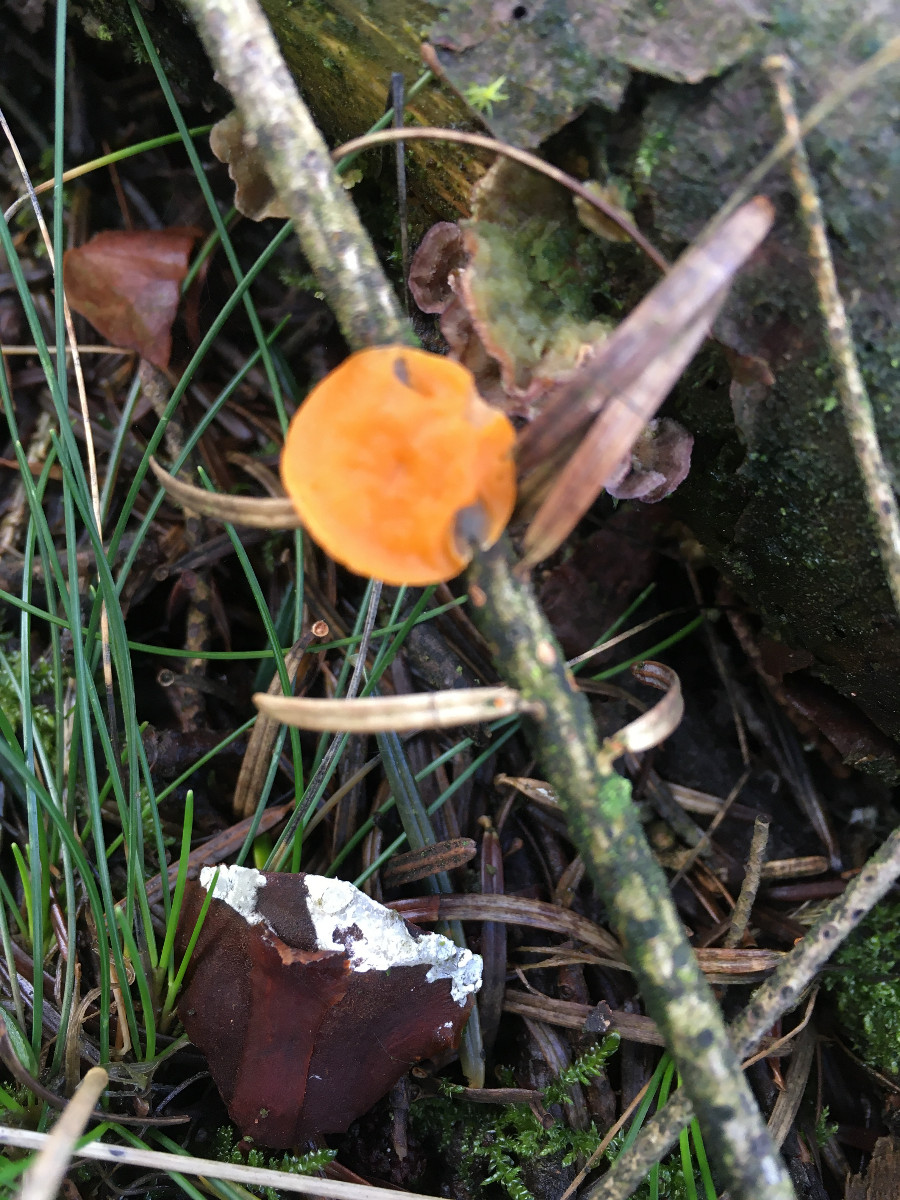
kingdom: Fungi
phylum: Ascomycota
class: Pezizomycetes
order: Pezizales
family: Sarcoscyphaceae
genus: Pithya
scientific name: Pithya vulgaris
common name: stor dukatbæger
